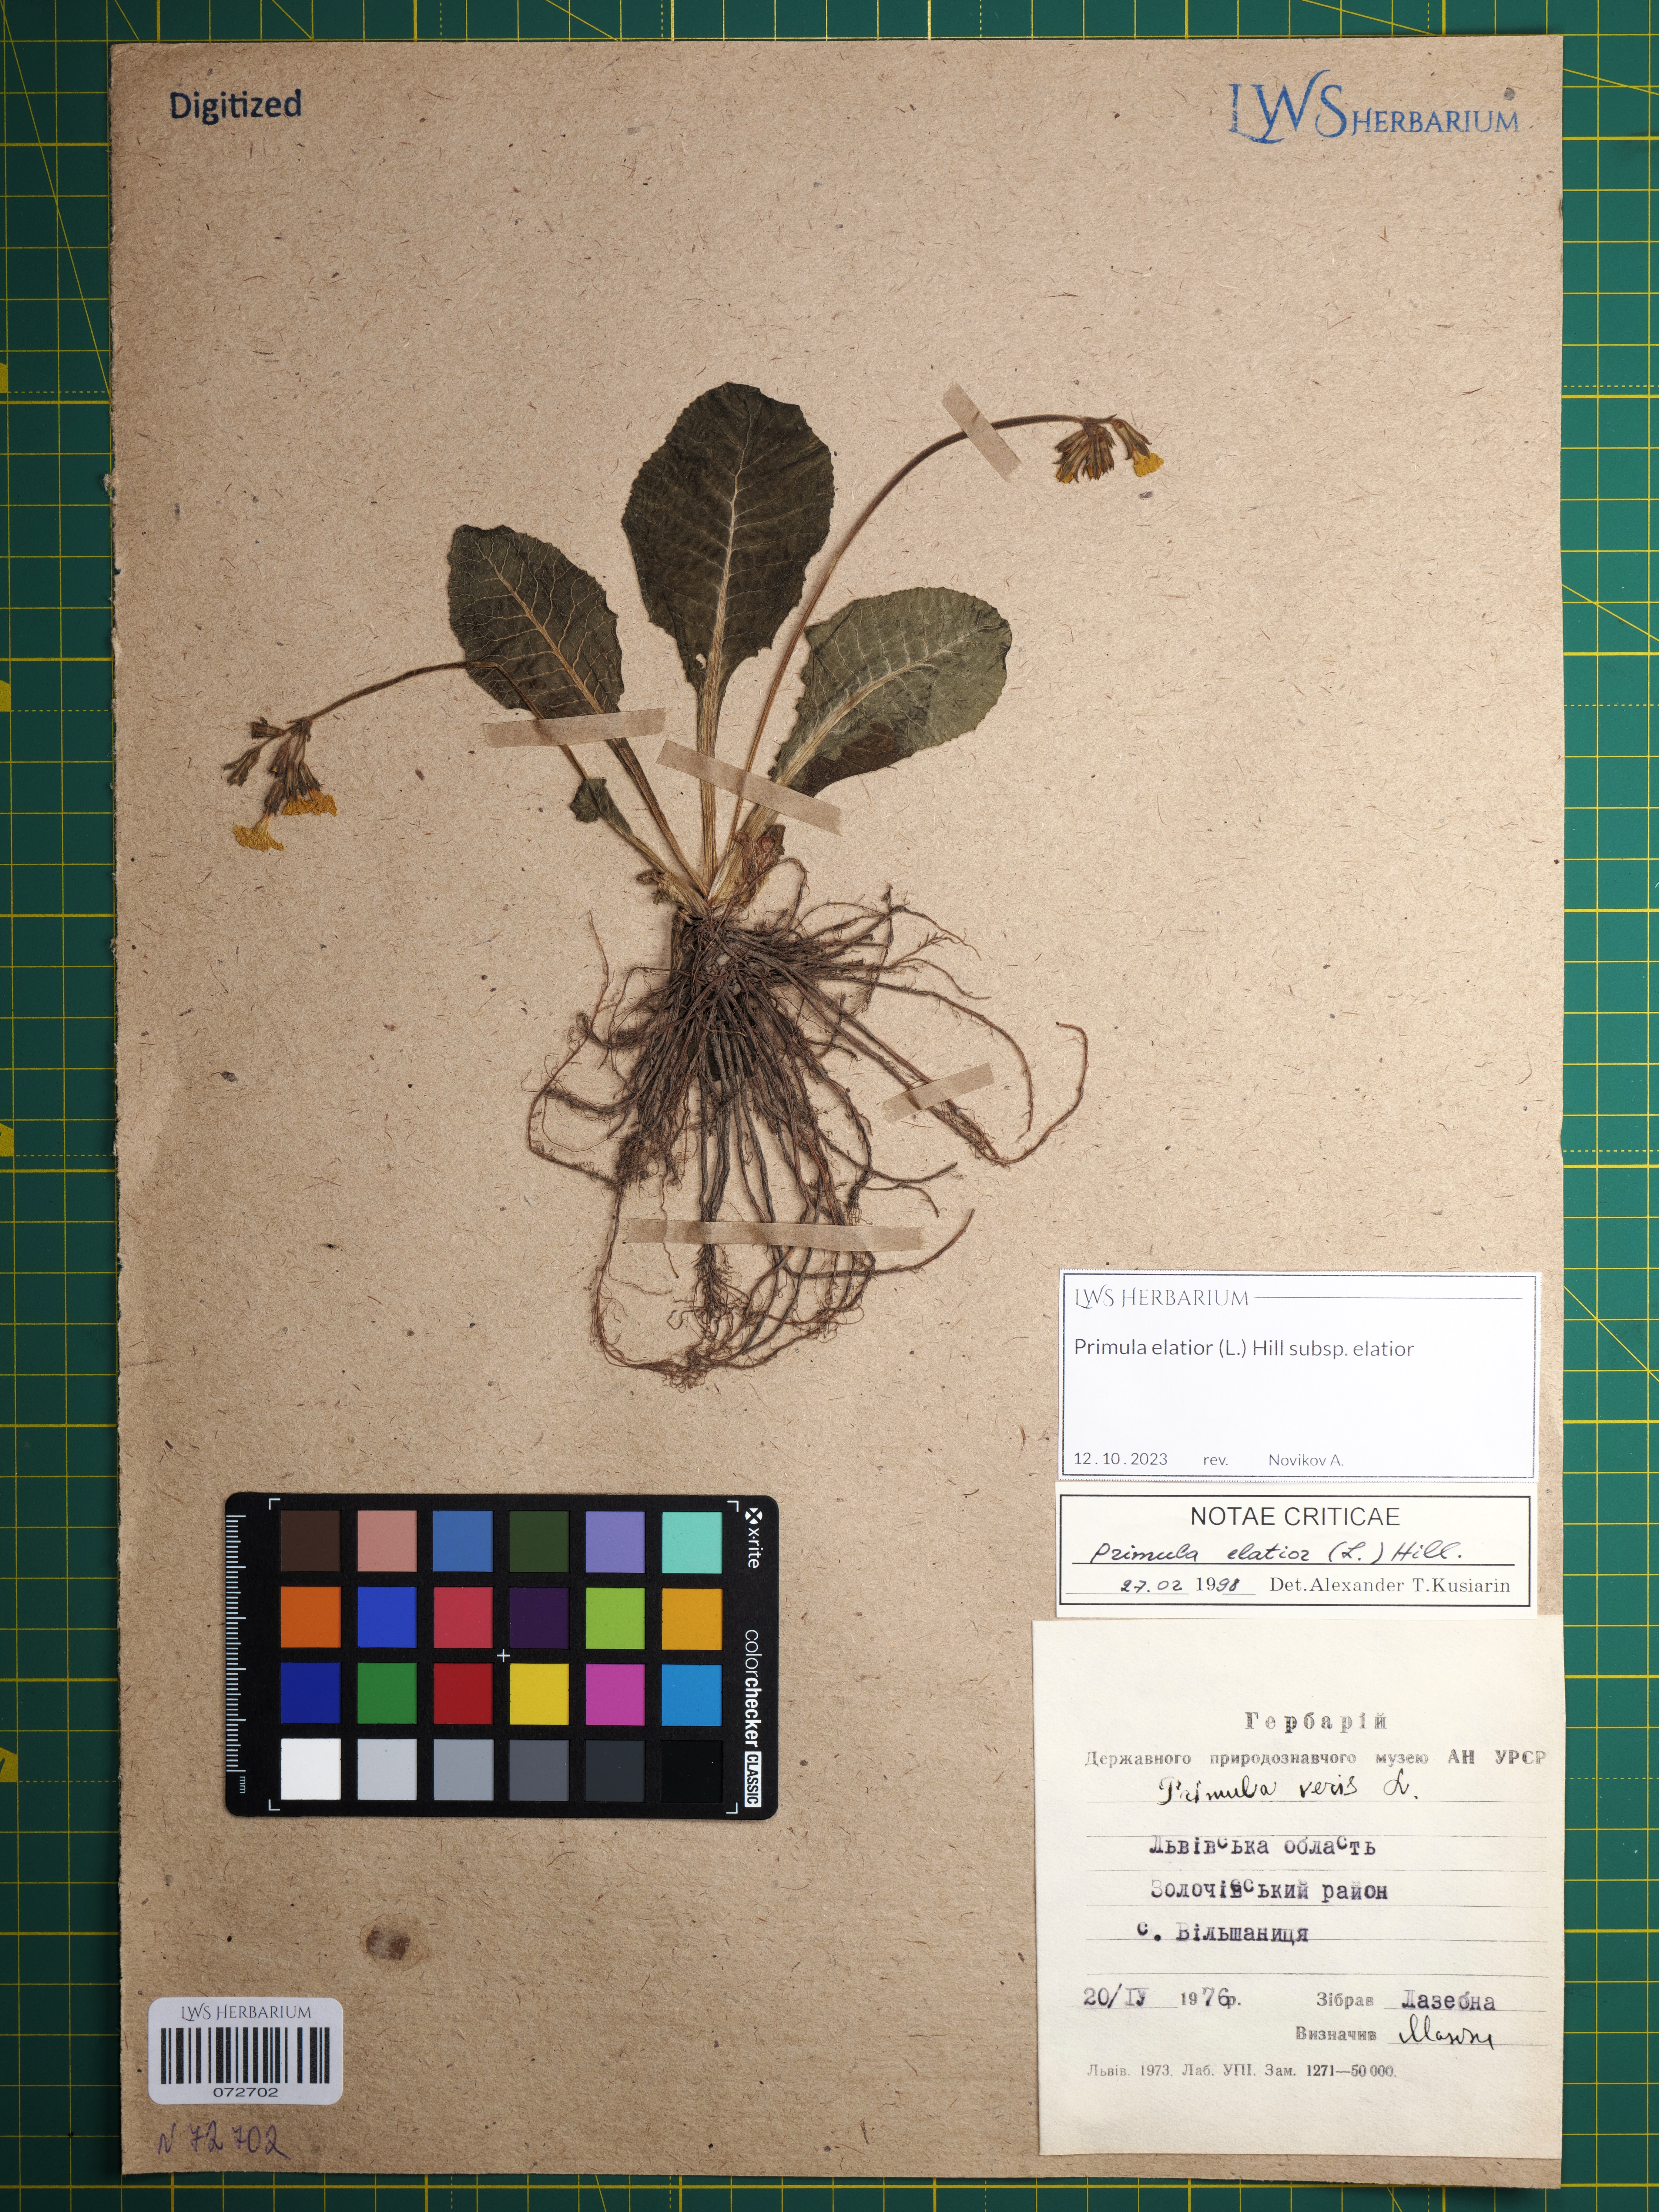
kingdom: Plantae
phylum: Tracheophyta
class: Magnoliopsida
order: Ericales
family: Primulaceae
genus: Primula
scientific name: Primula elatior
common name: Oxlip
